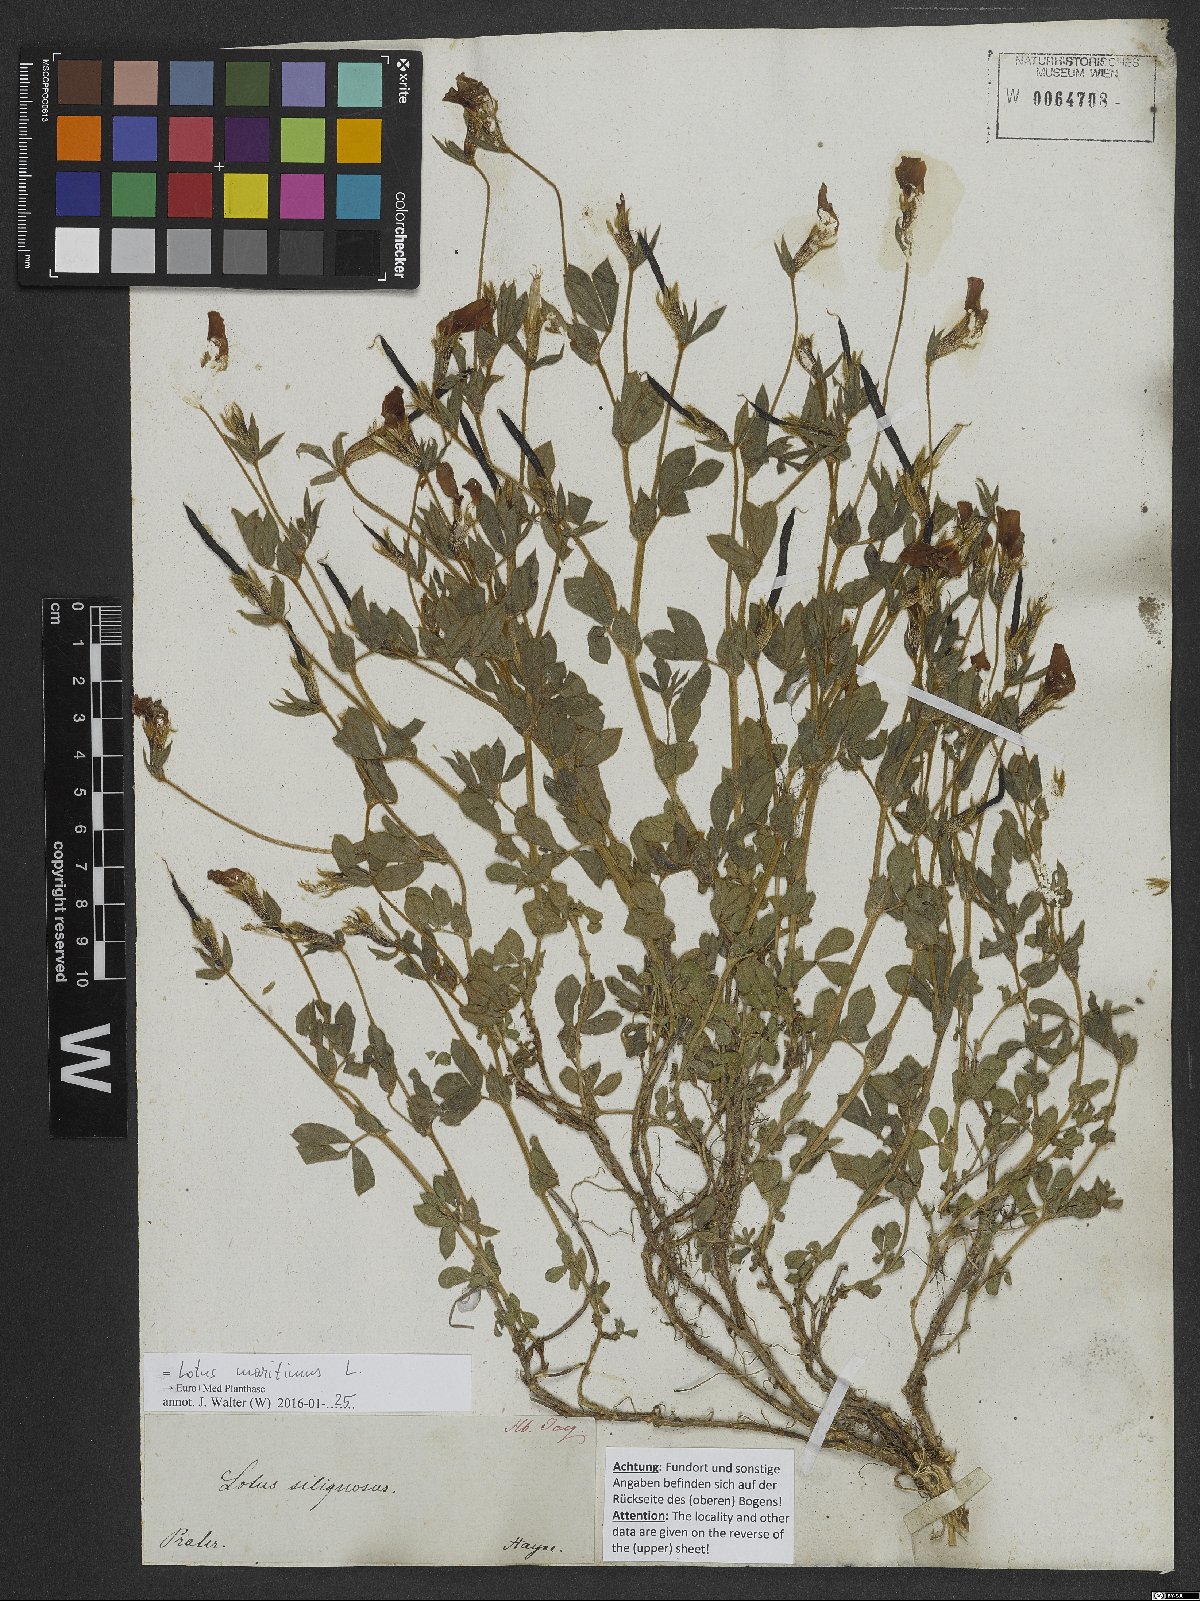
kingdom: Plantae
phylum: Tracheophyta
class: Magnoliopsida
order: Fabales
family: Fabaceae
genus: Lotus
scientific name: Lotus maritimus
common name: Dragon's-teeth
